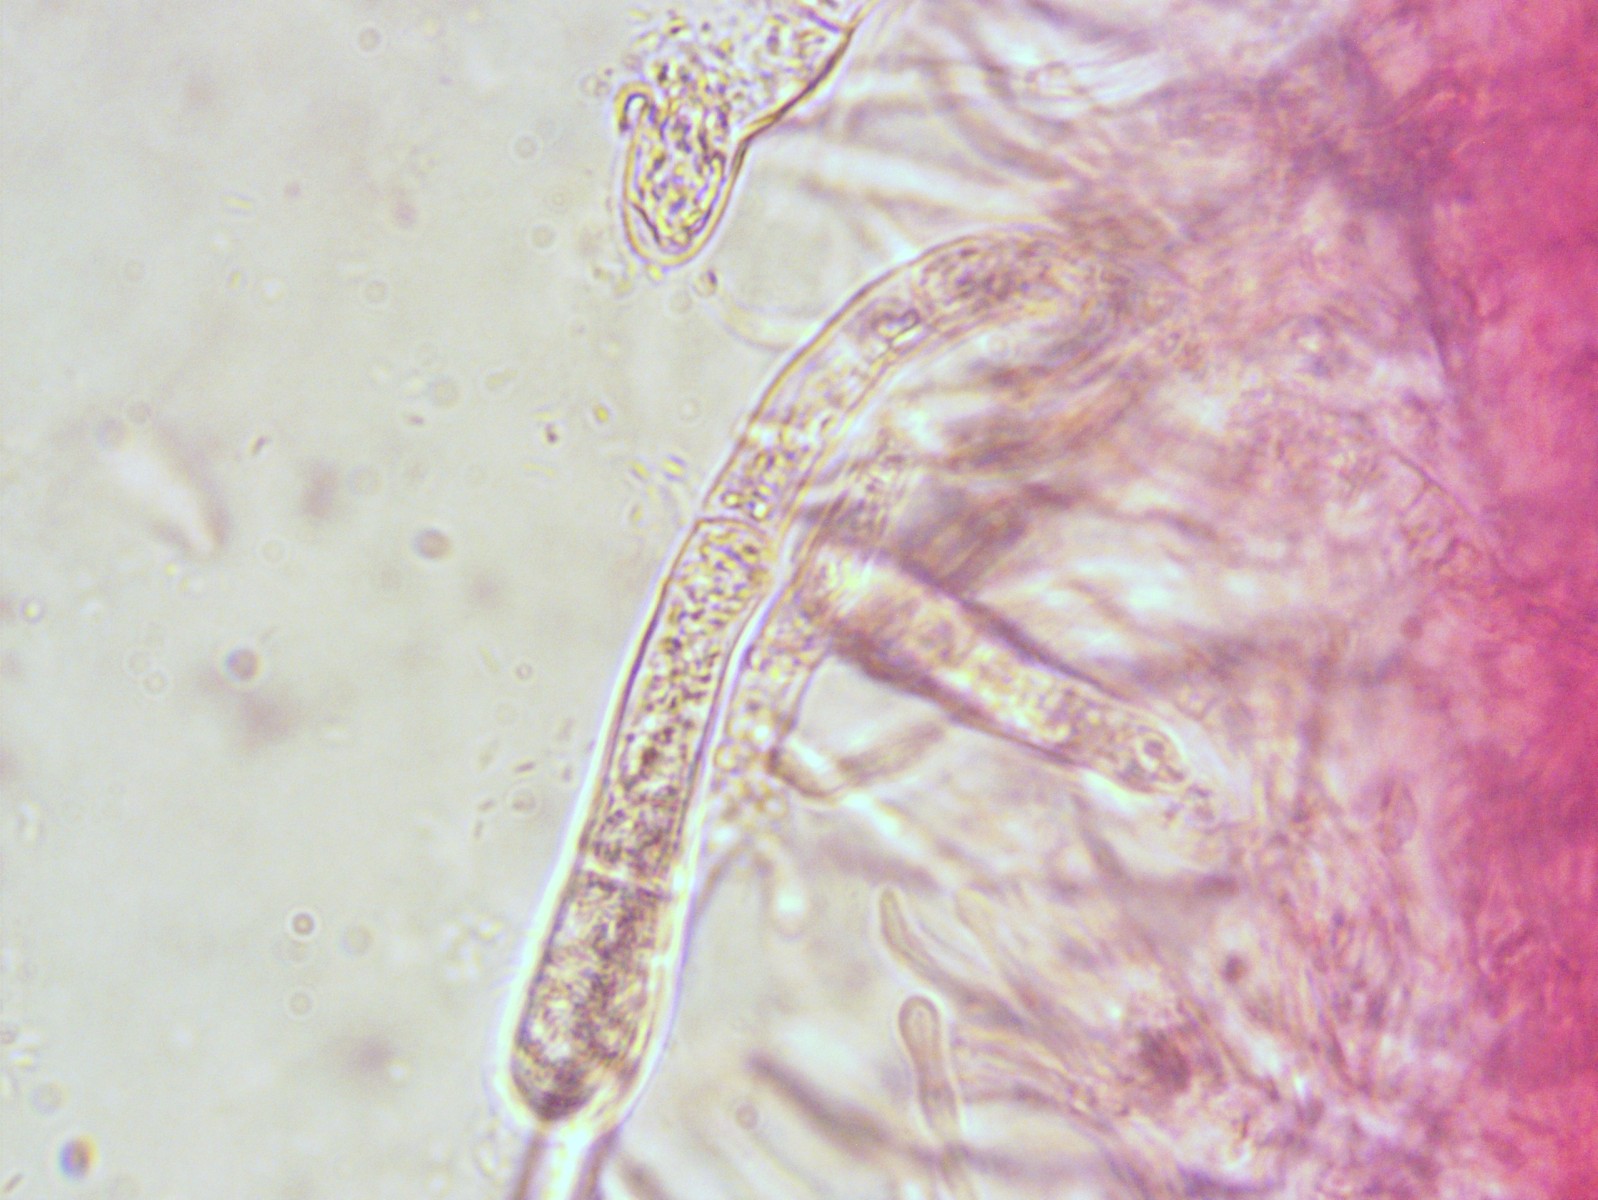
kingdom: Fungi
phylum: Basidiomycota
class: Agaricomycetes
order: Russulales
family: Russulaceae
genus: Russula
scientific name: Russula veternosa
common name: blødkødet skørhat
